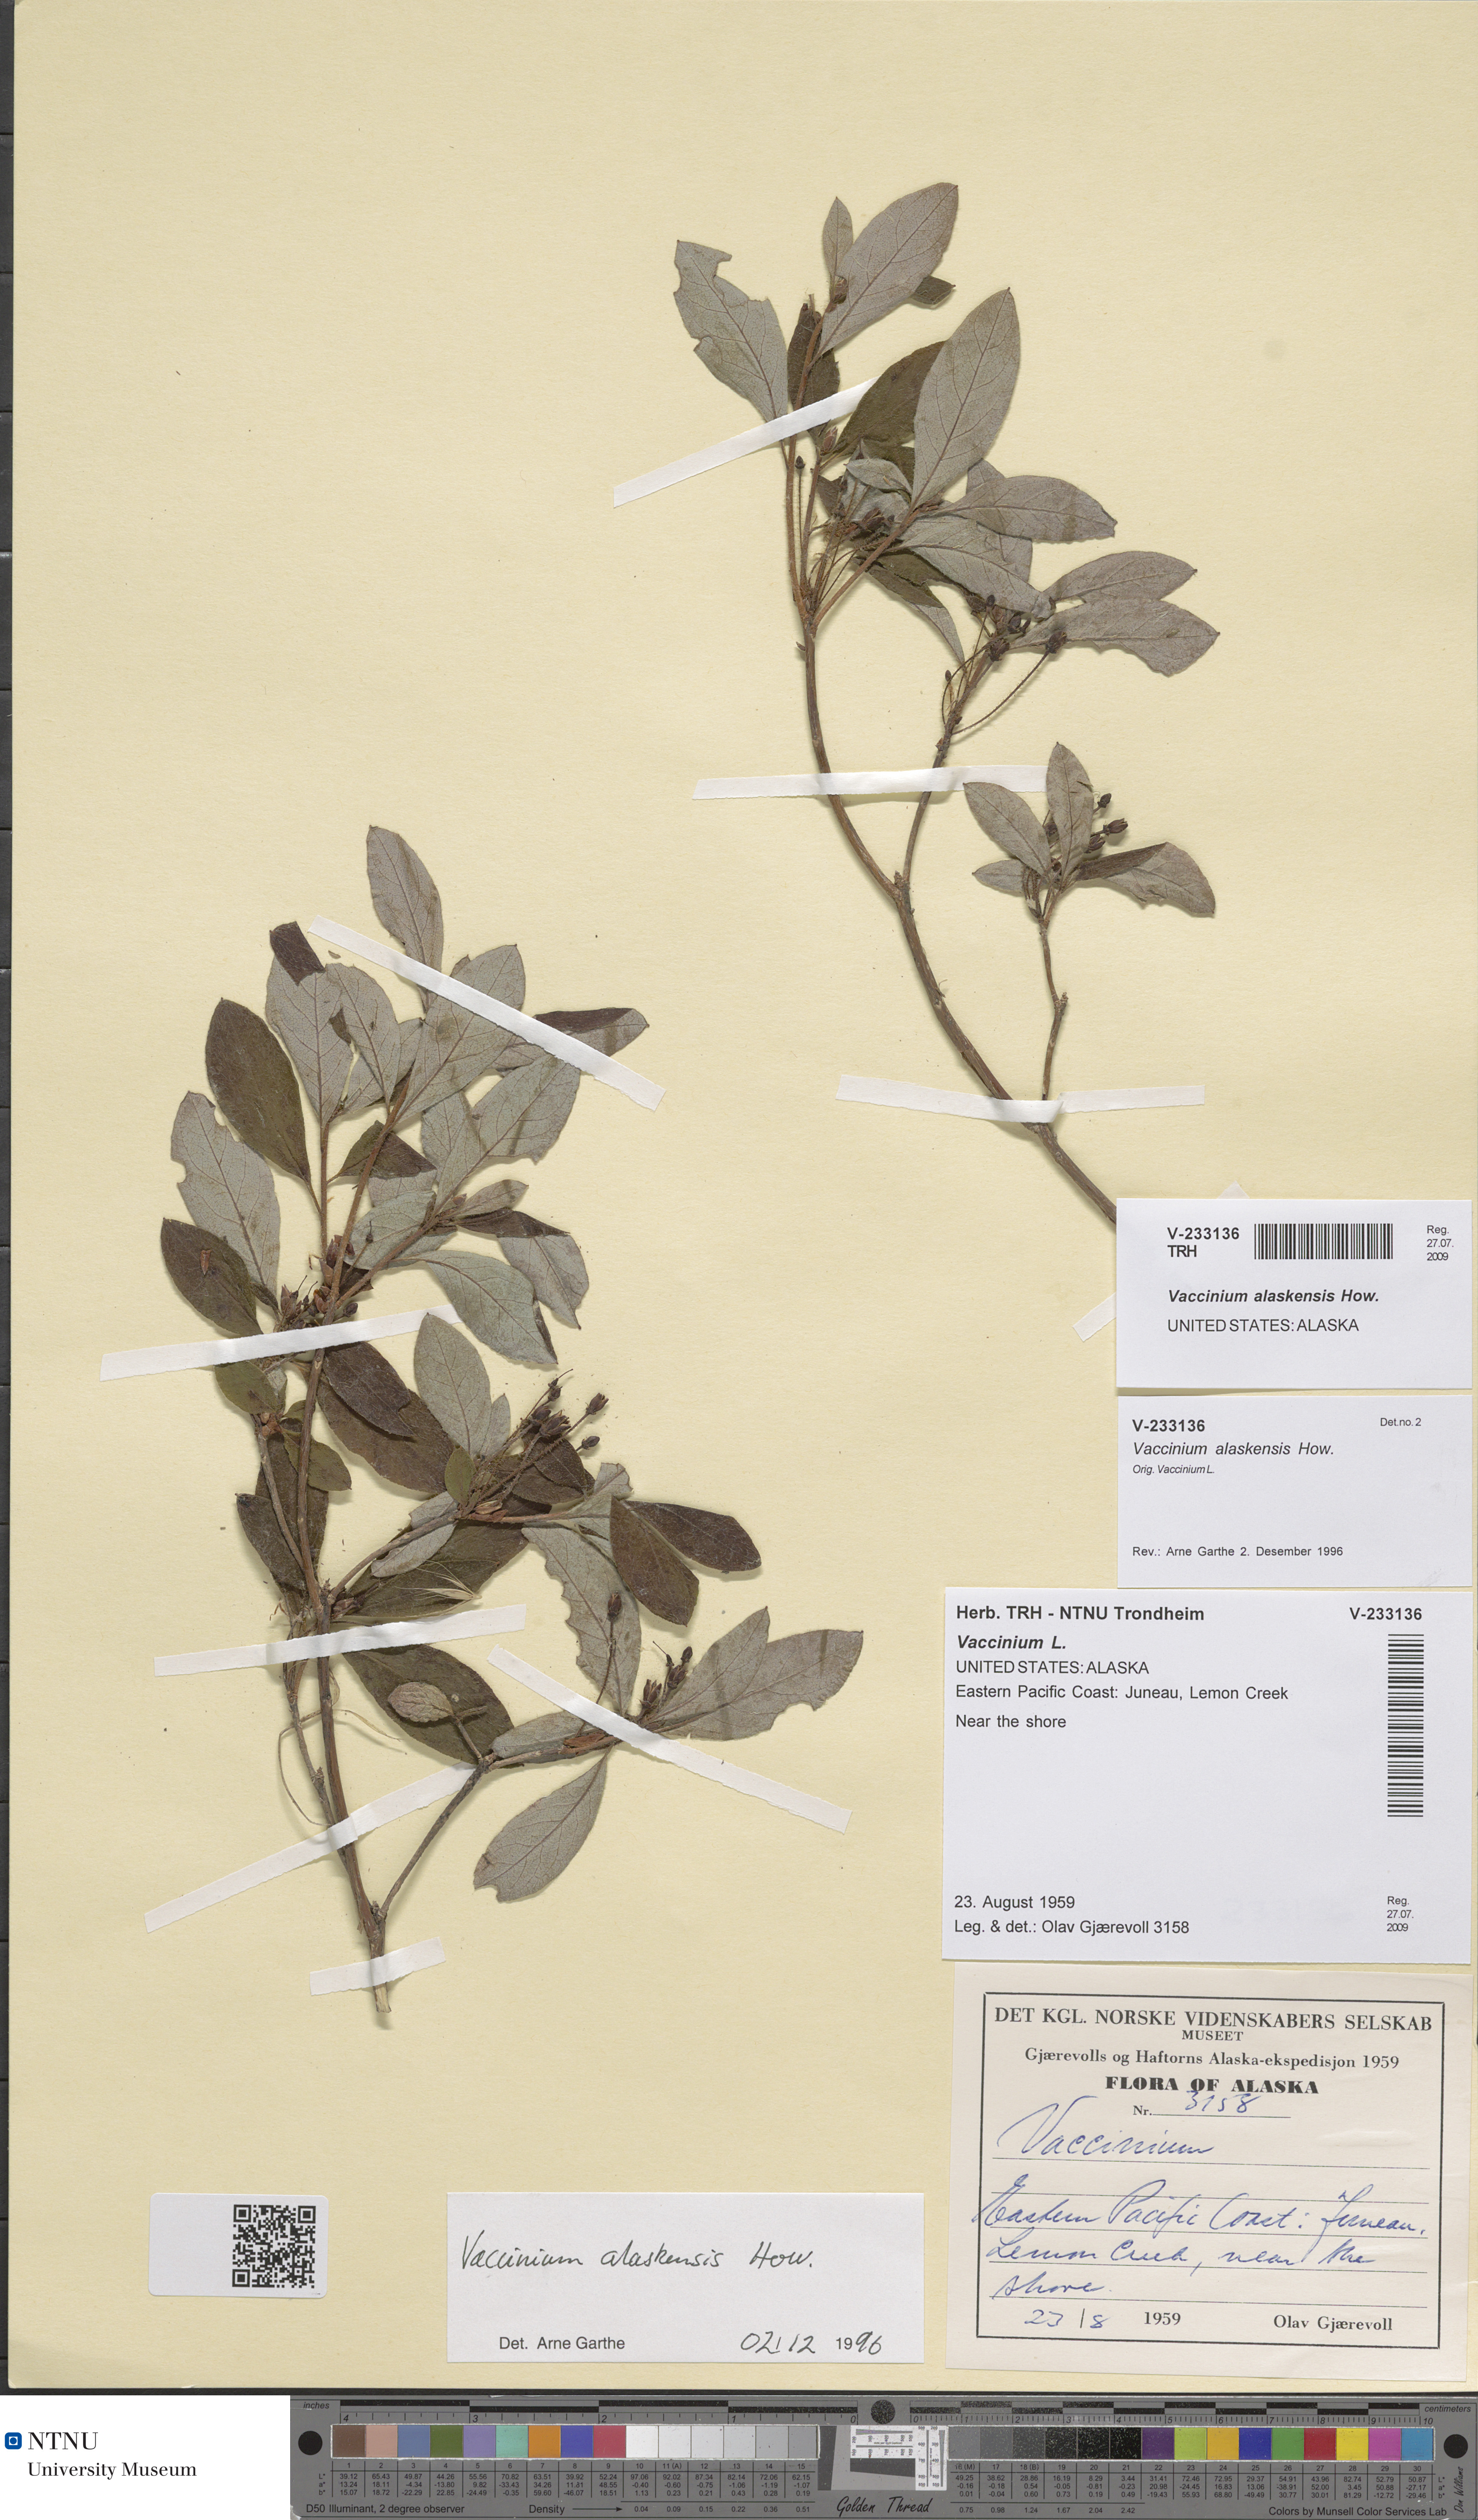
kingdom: Plantae
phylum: Tracheophyta
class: Magnoliopsida
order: Ericales
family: Ericaceae
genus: Vaccinium
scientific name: Vaccinium alaskensis
